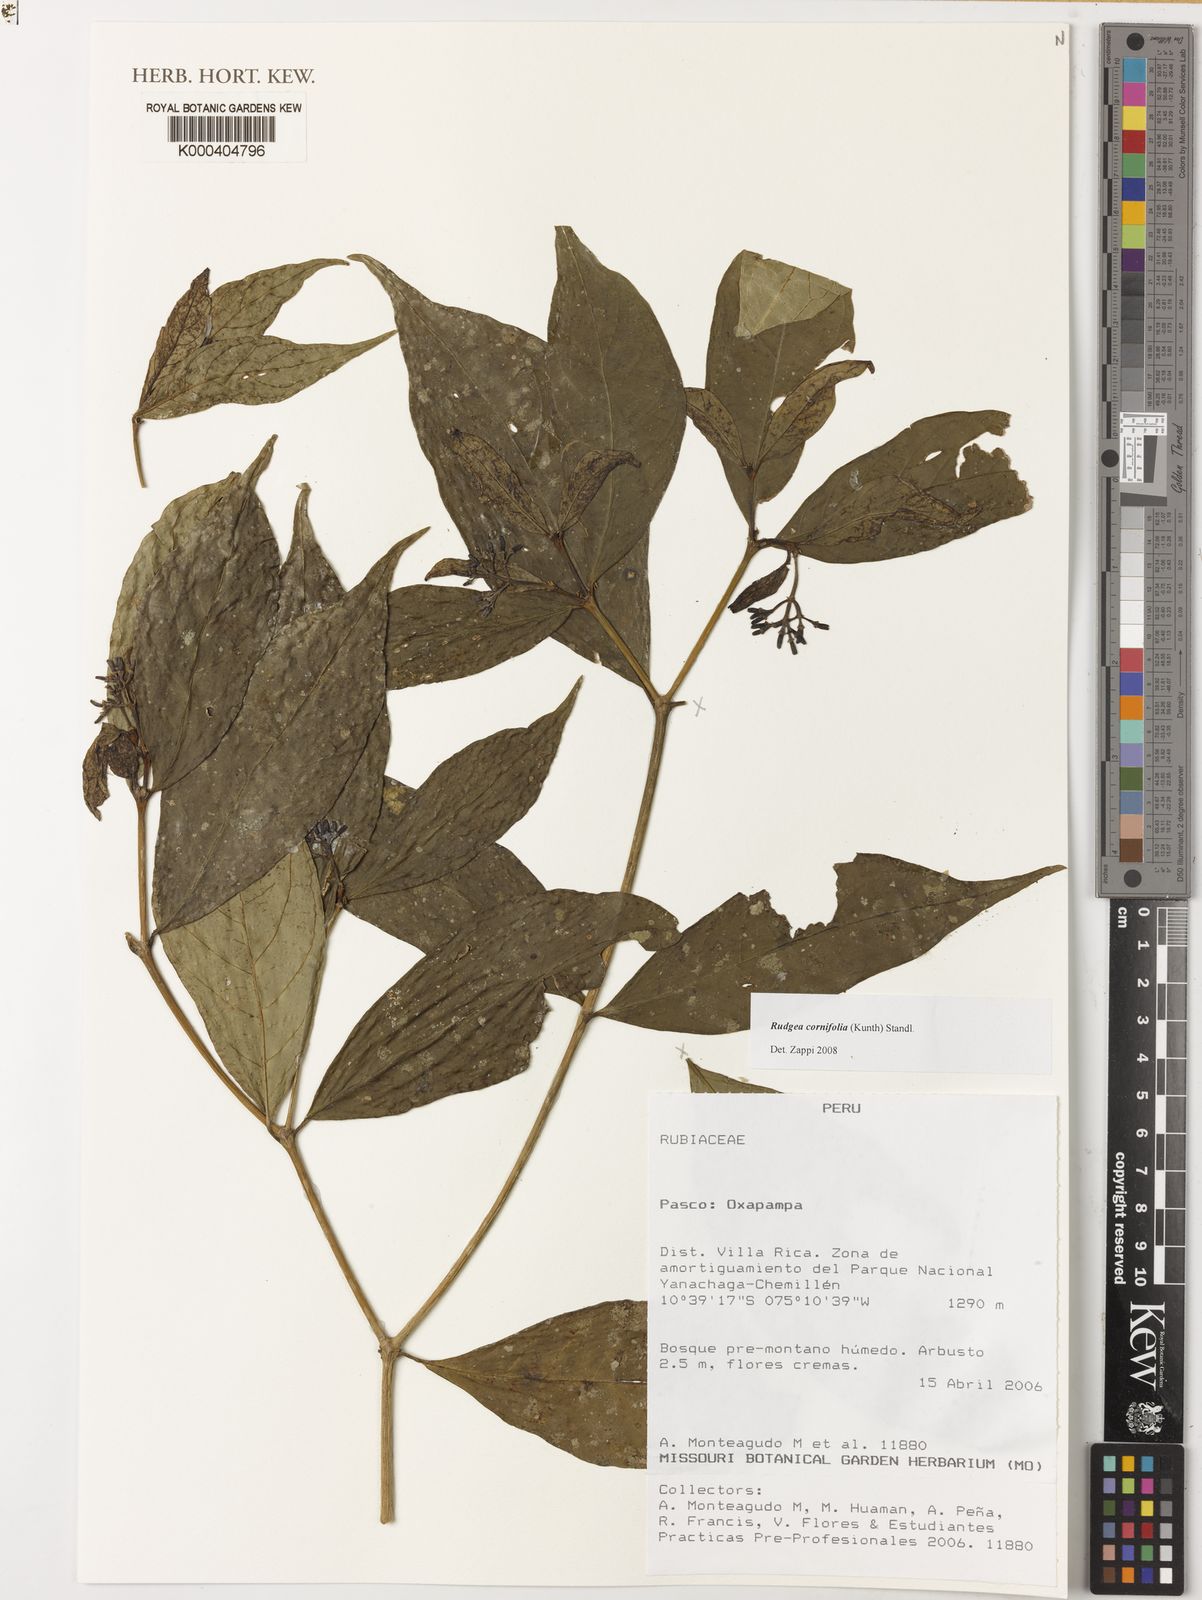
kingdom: Plantae
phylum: Tracheophyta
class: Magnoliopsida
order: Gentianales
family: Rubiaceae
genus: Rudgea
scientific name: Rudgea cornifolia
